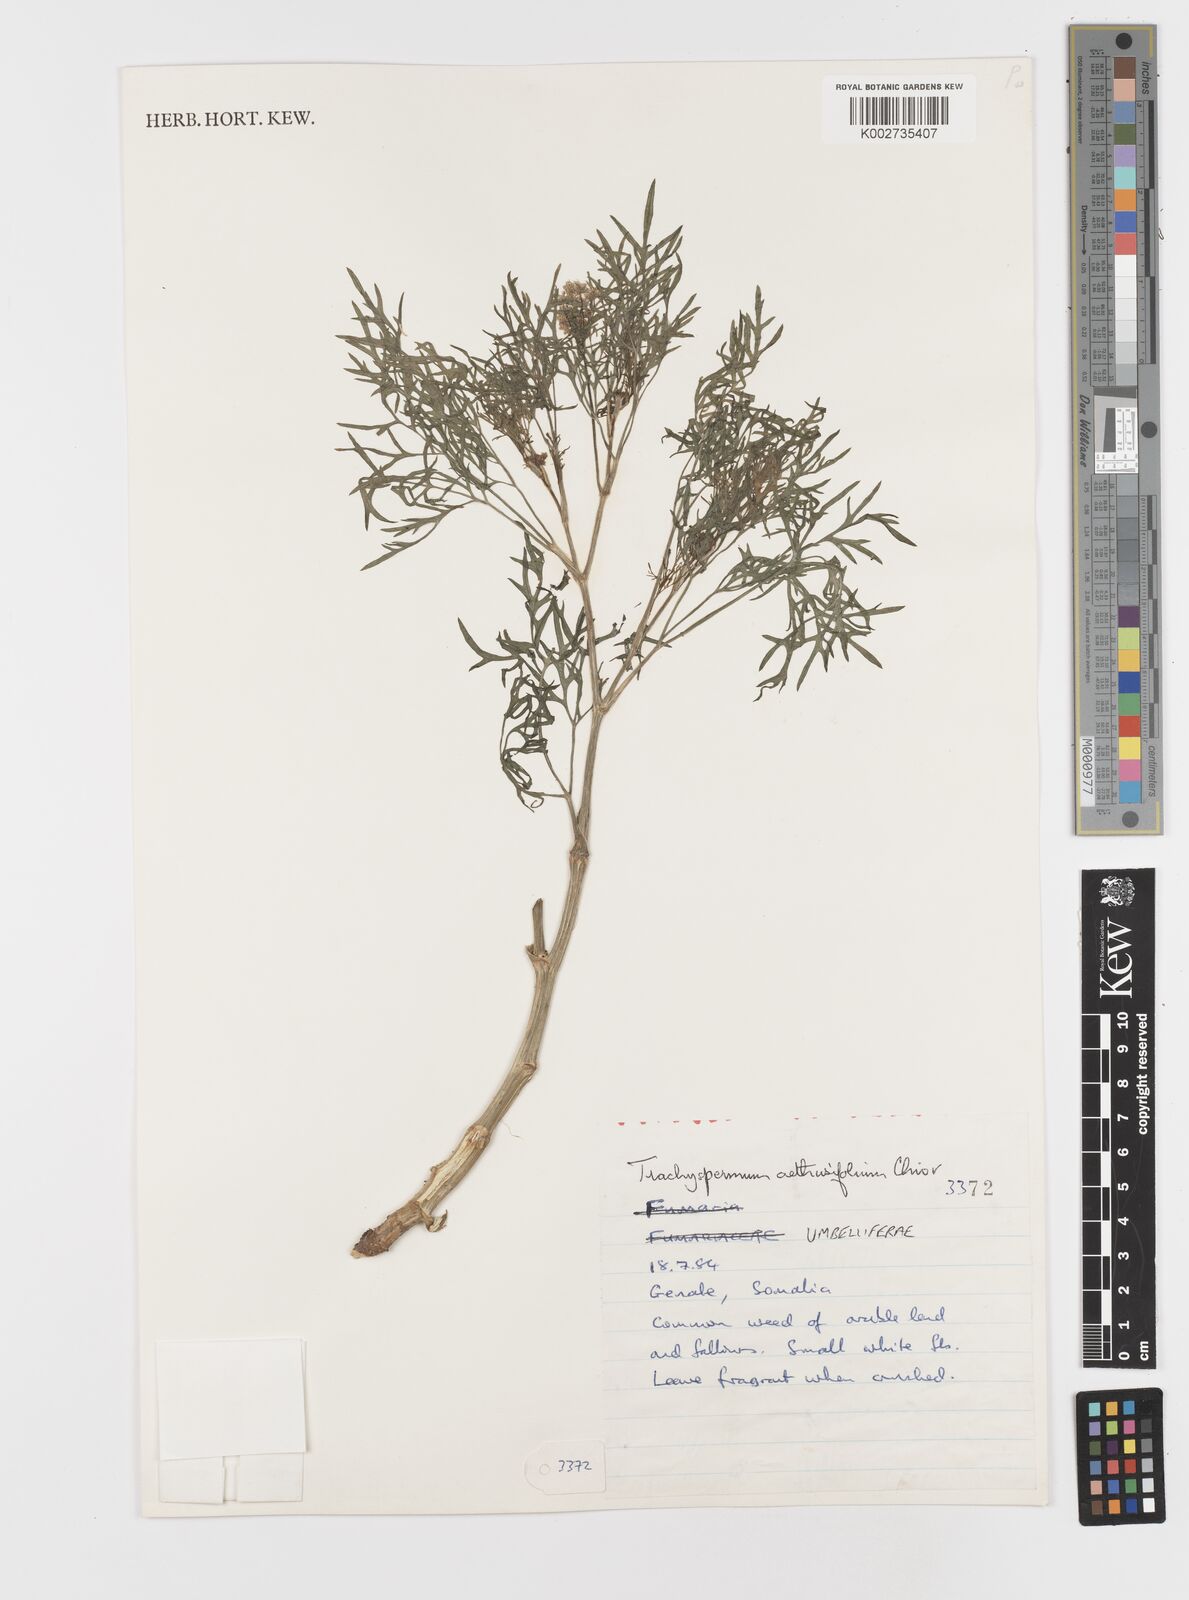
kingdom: Plantae
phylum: Tracheophyta
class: Magnoliopsida
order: Apiales
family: Apiaceae
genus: Trachyspermum
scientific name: Trachyspermum pimpinelloides
